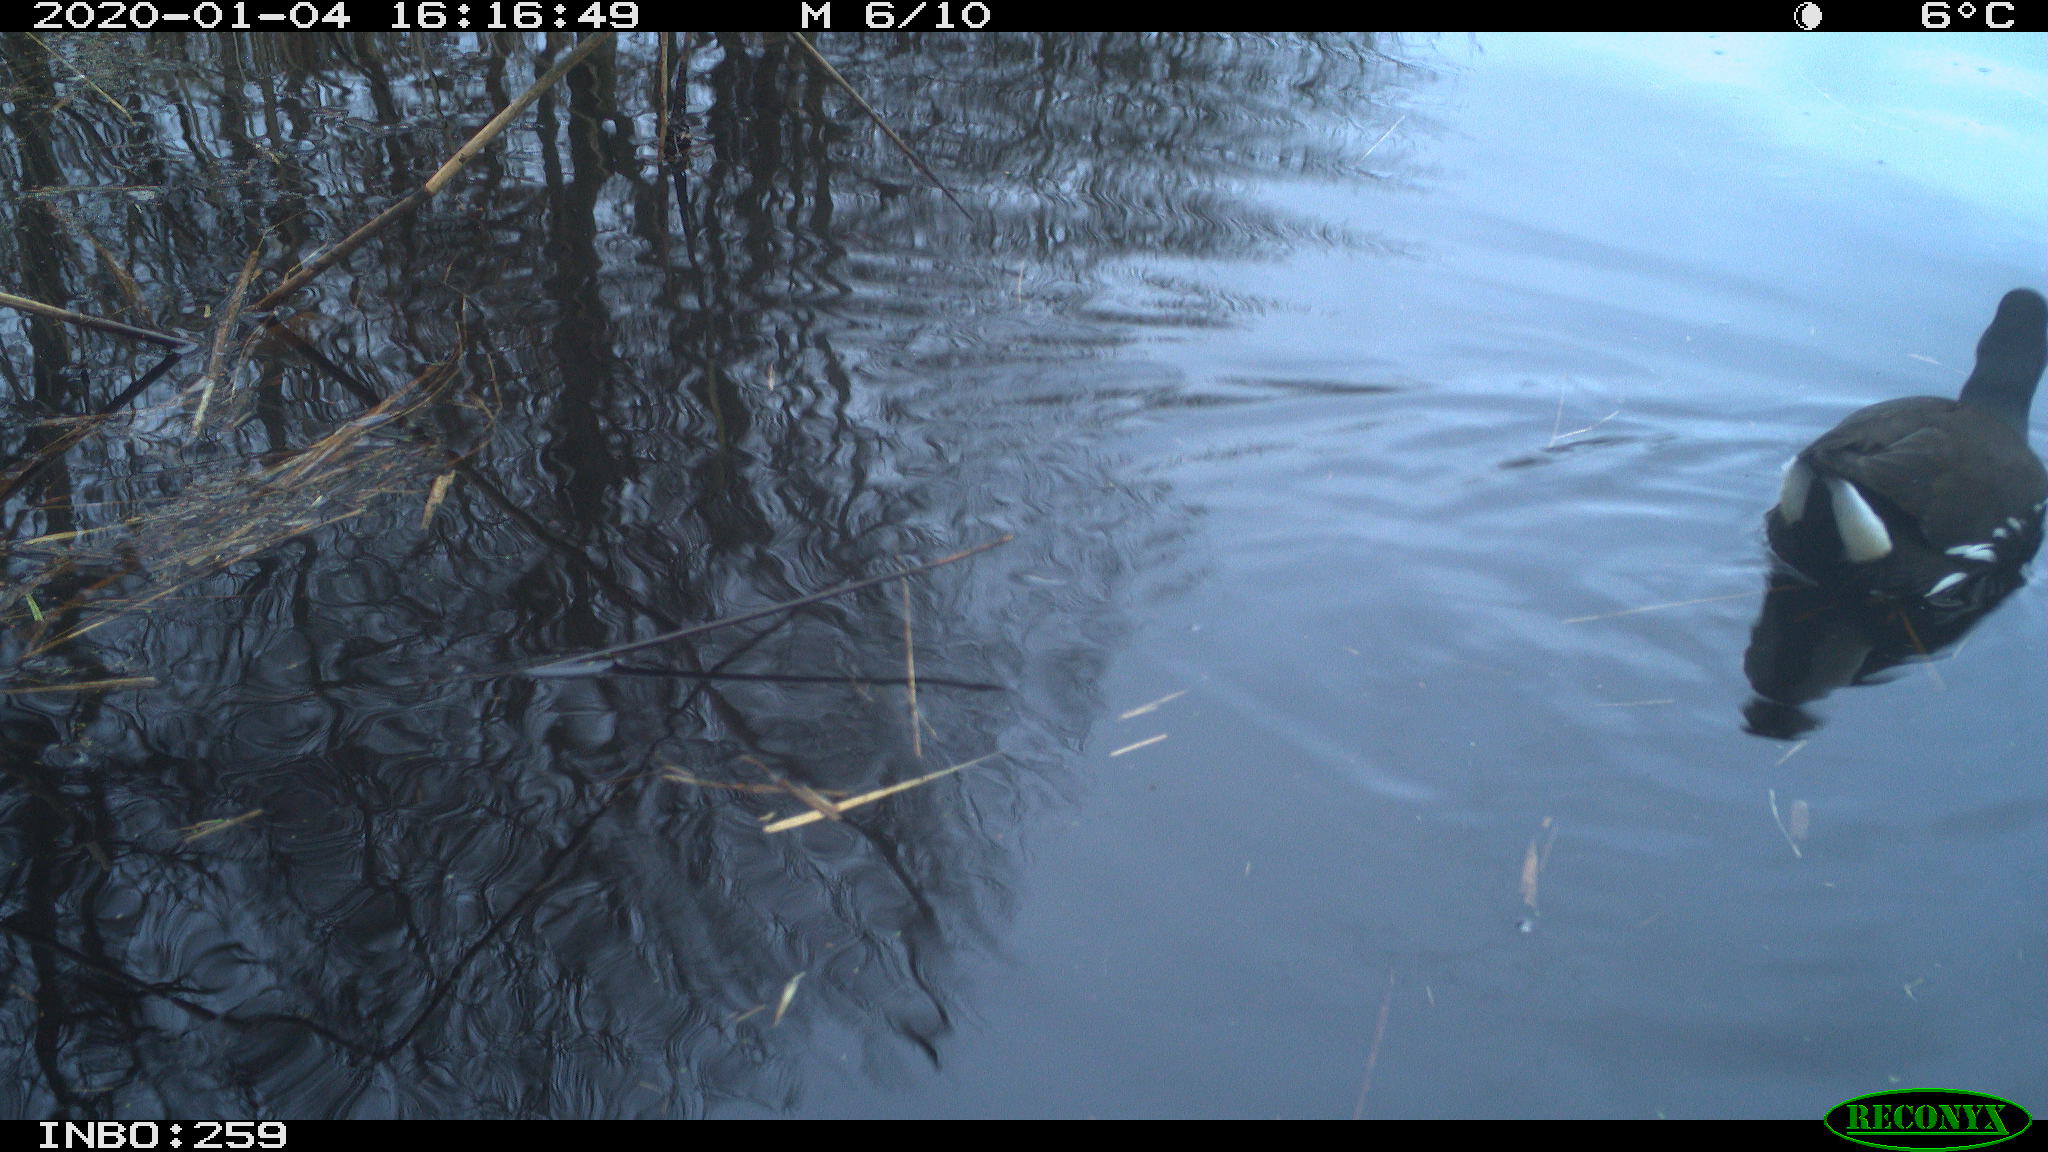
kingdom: Animalia
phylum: Chordata
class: Aves
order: Gruiformes
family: Rallidae
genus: Gallinula
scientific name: Gallinula chloropus
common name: Common moorhen
